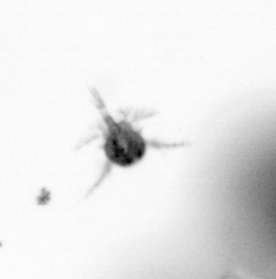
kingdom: Animalia
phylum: Arthropoda
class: Copepoda
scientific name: Copepoda
